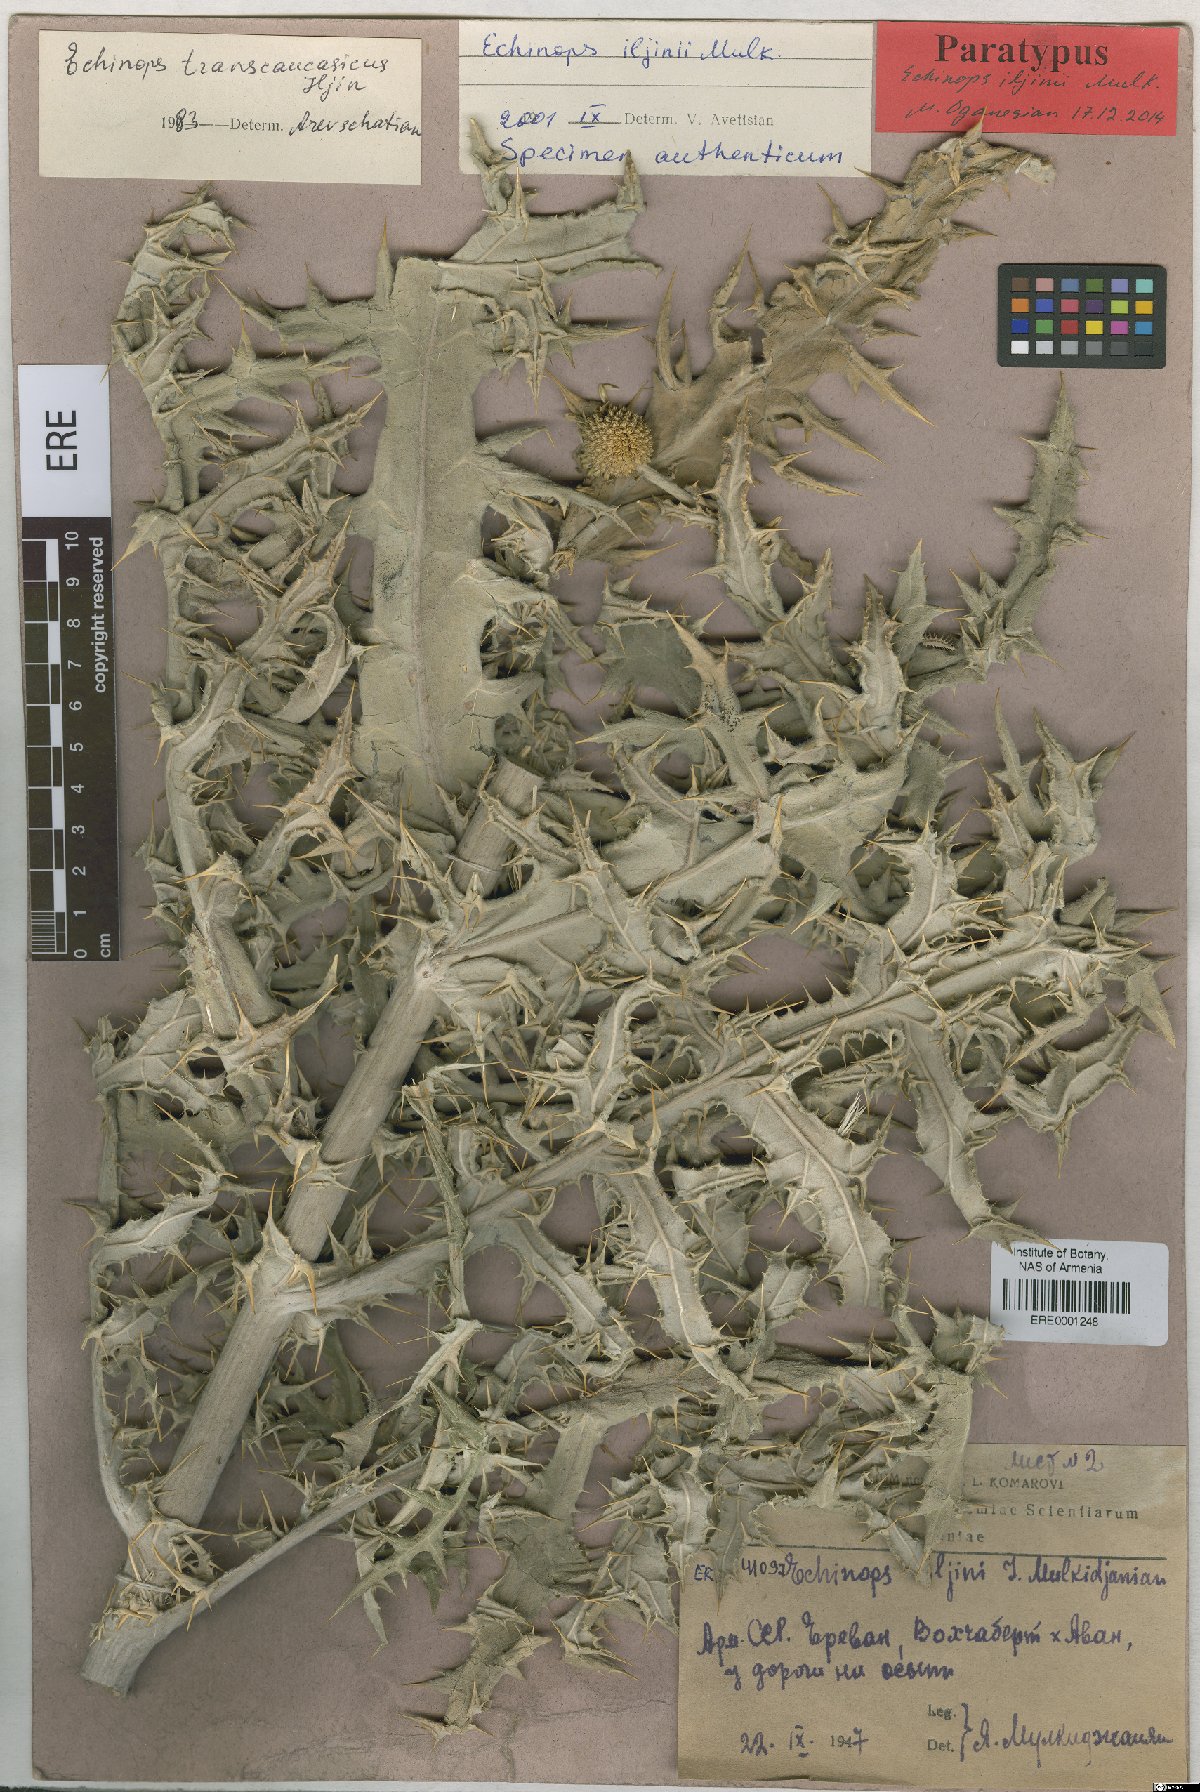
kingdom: Plantae
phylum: Tracheophyta
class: Magnoliopsida
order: Asterales
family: Asteraceae
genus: Echinops
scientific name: Echinops transcaucasicus
